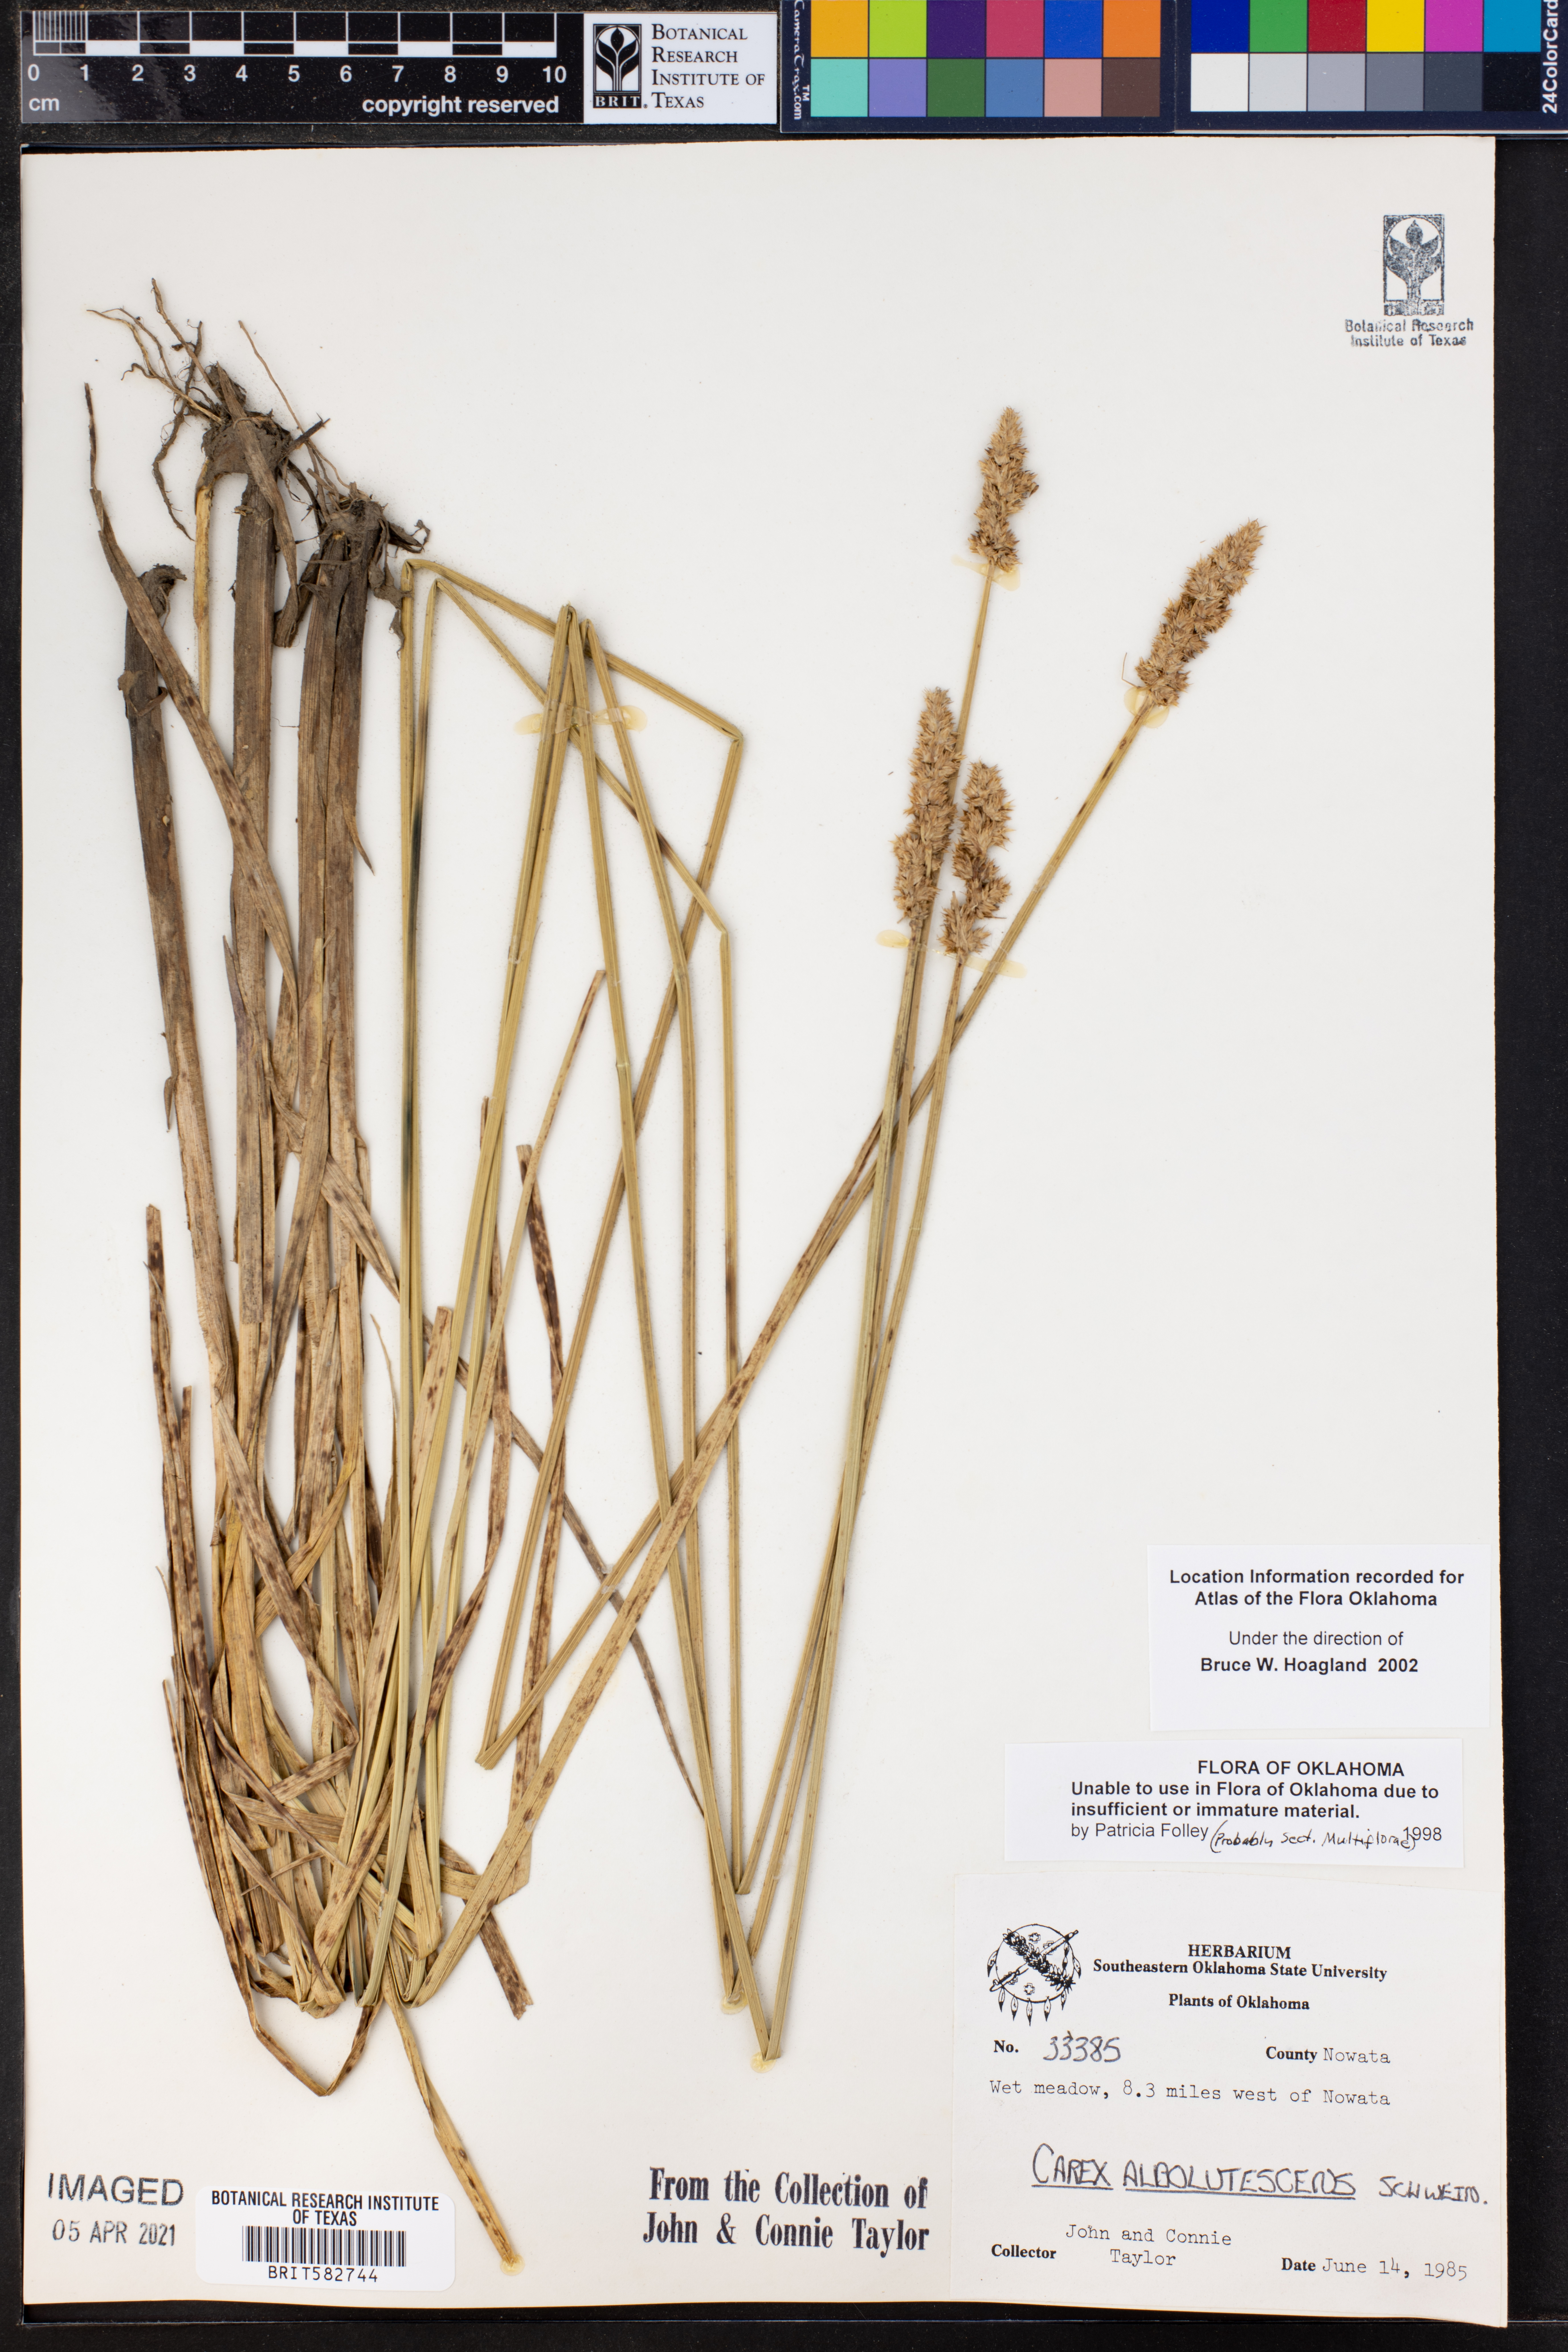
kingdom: Plantae
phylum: Tracheophyta
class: Liliopsida
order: Poales
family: Cyperaceae
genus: Carex
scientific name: Carex albolutescens
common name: Freenish white sedge
